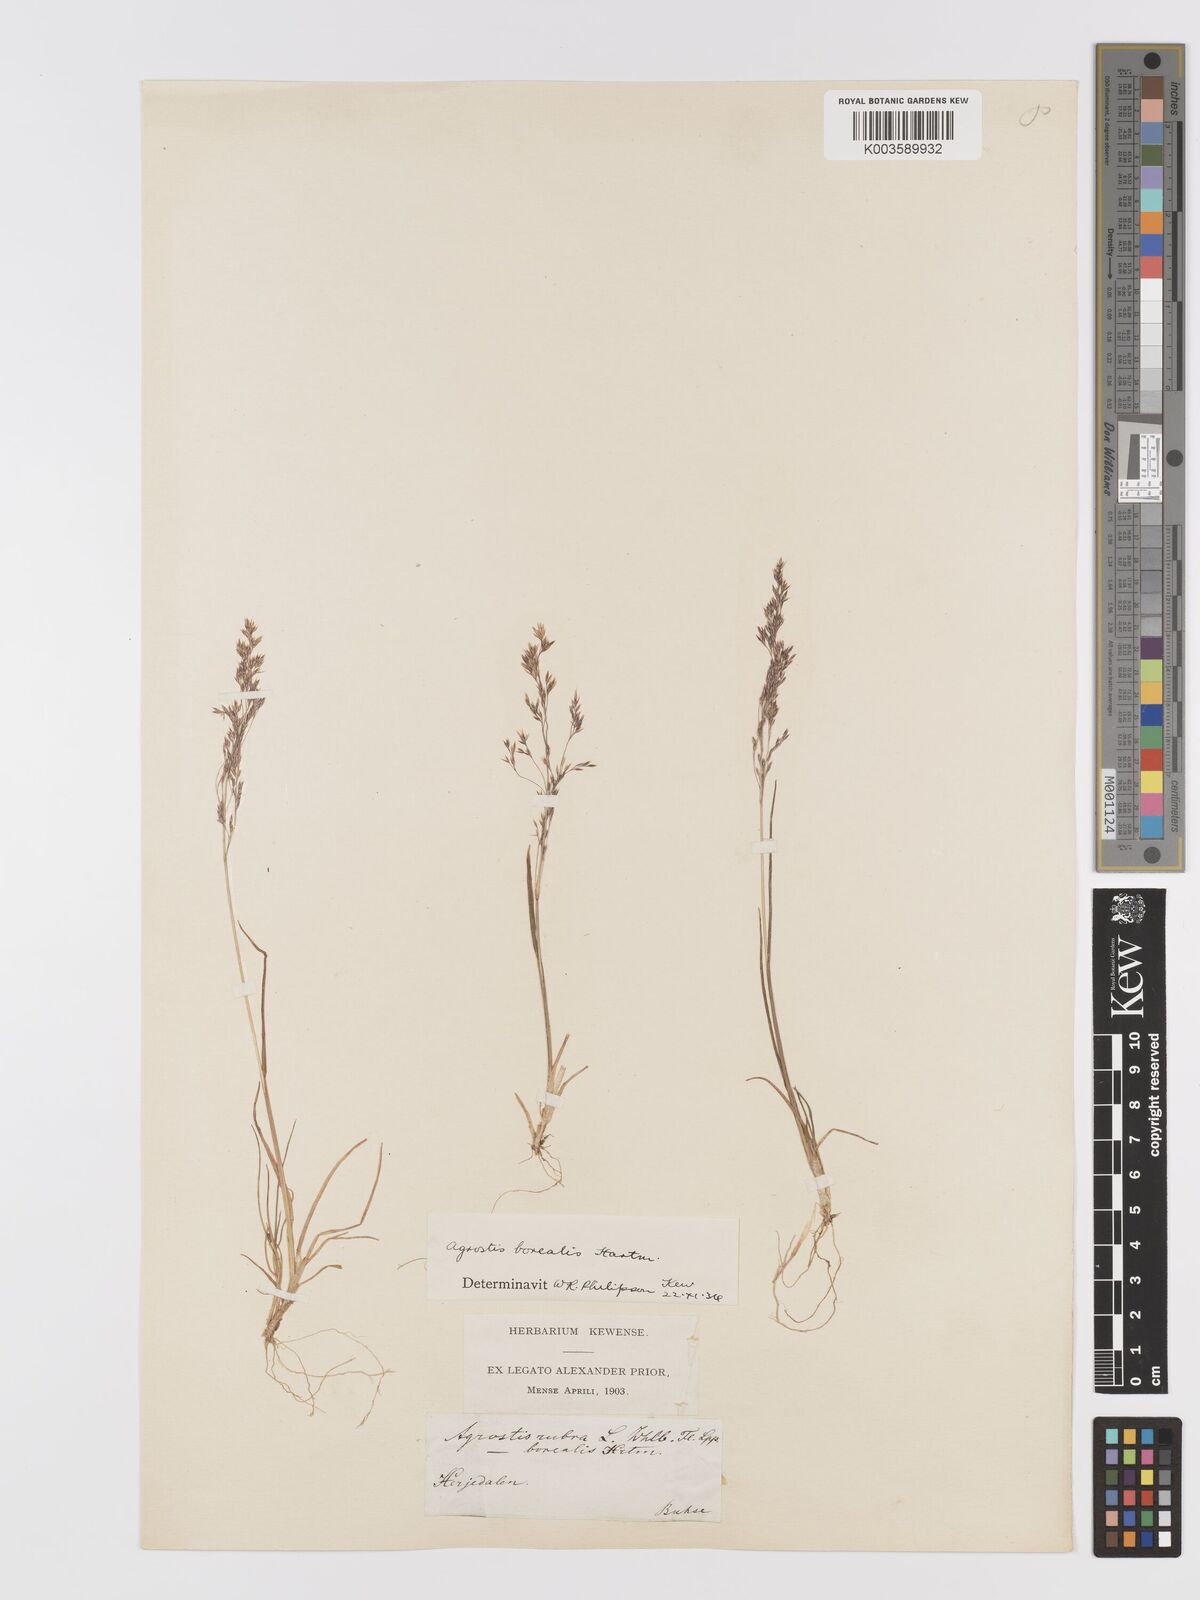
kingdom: Plantae
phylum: Tracheophyta
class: Liliopsida
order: Poales
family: Poaceae
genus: Agrostis
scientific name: Agrostis mertensii
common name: Northern bent
